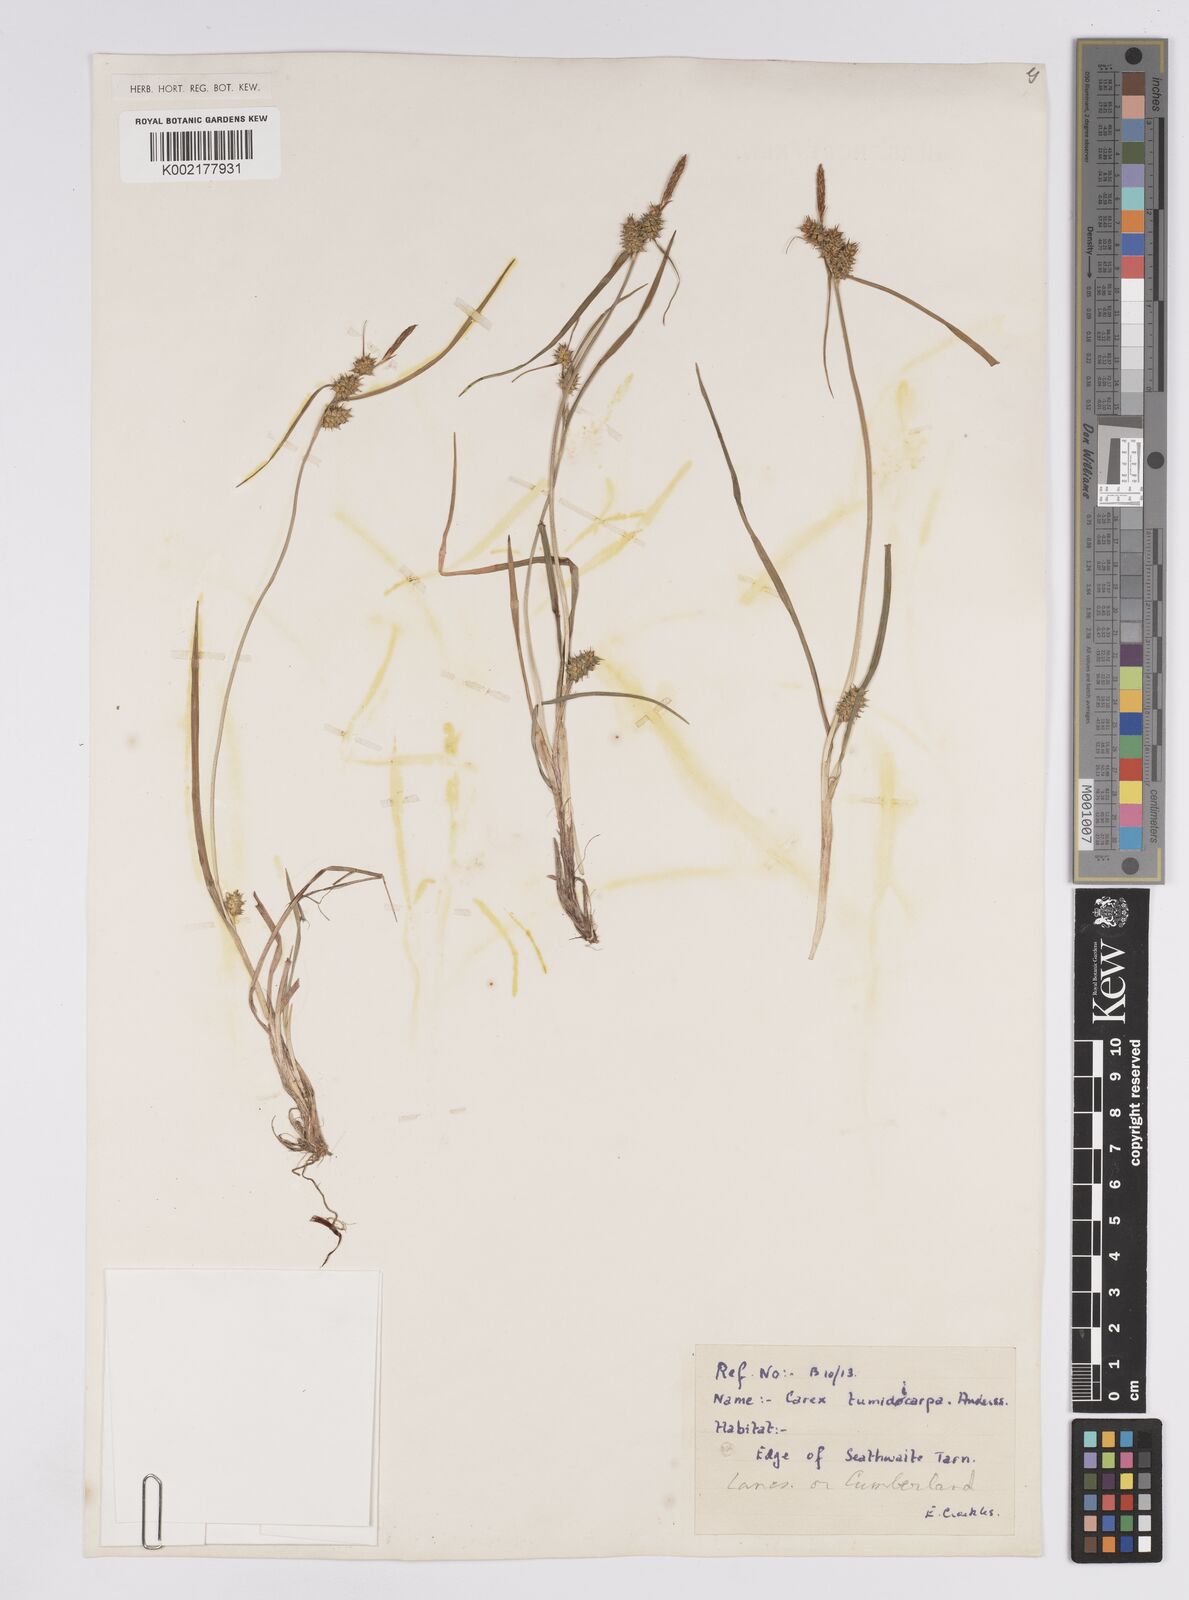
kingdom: Plantae
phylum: Tracheophyta
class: Liliopsida
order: Poales
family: Cyperaceae
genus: Carex
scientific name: Carex demissa
